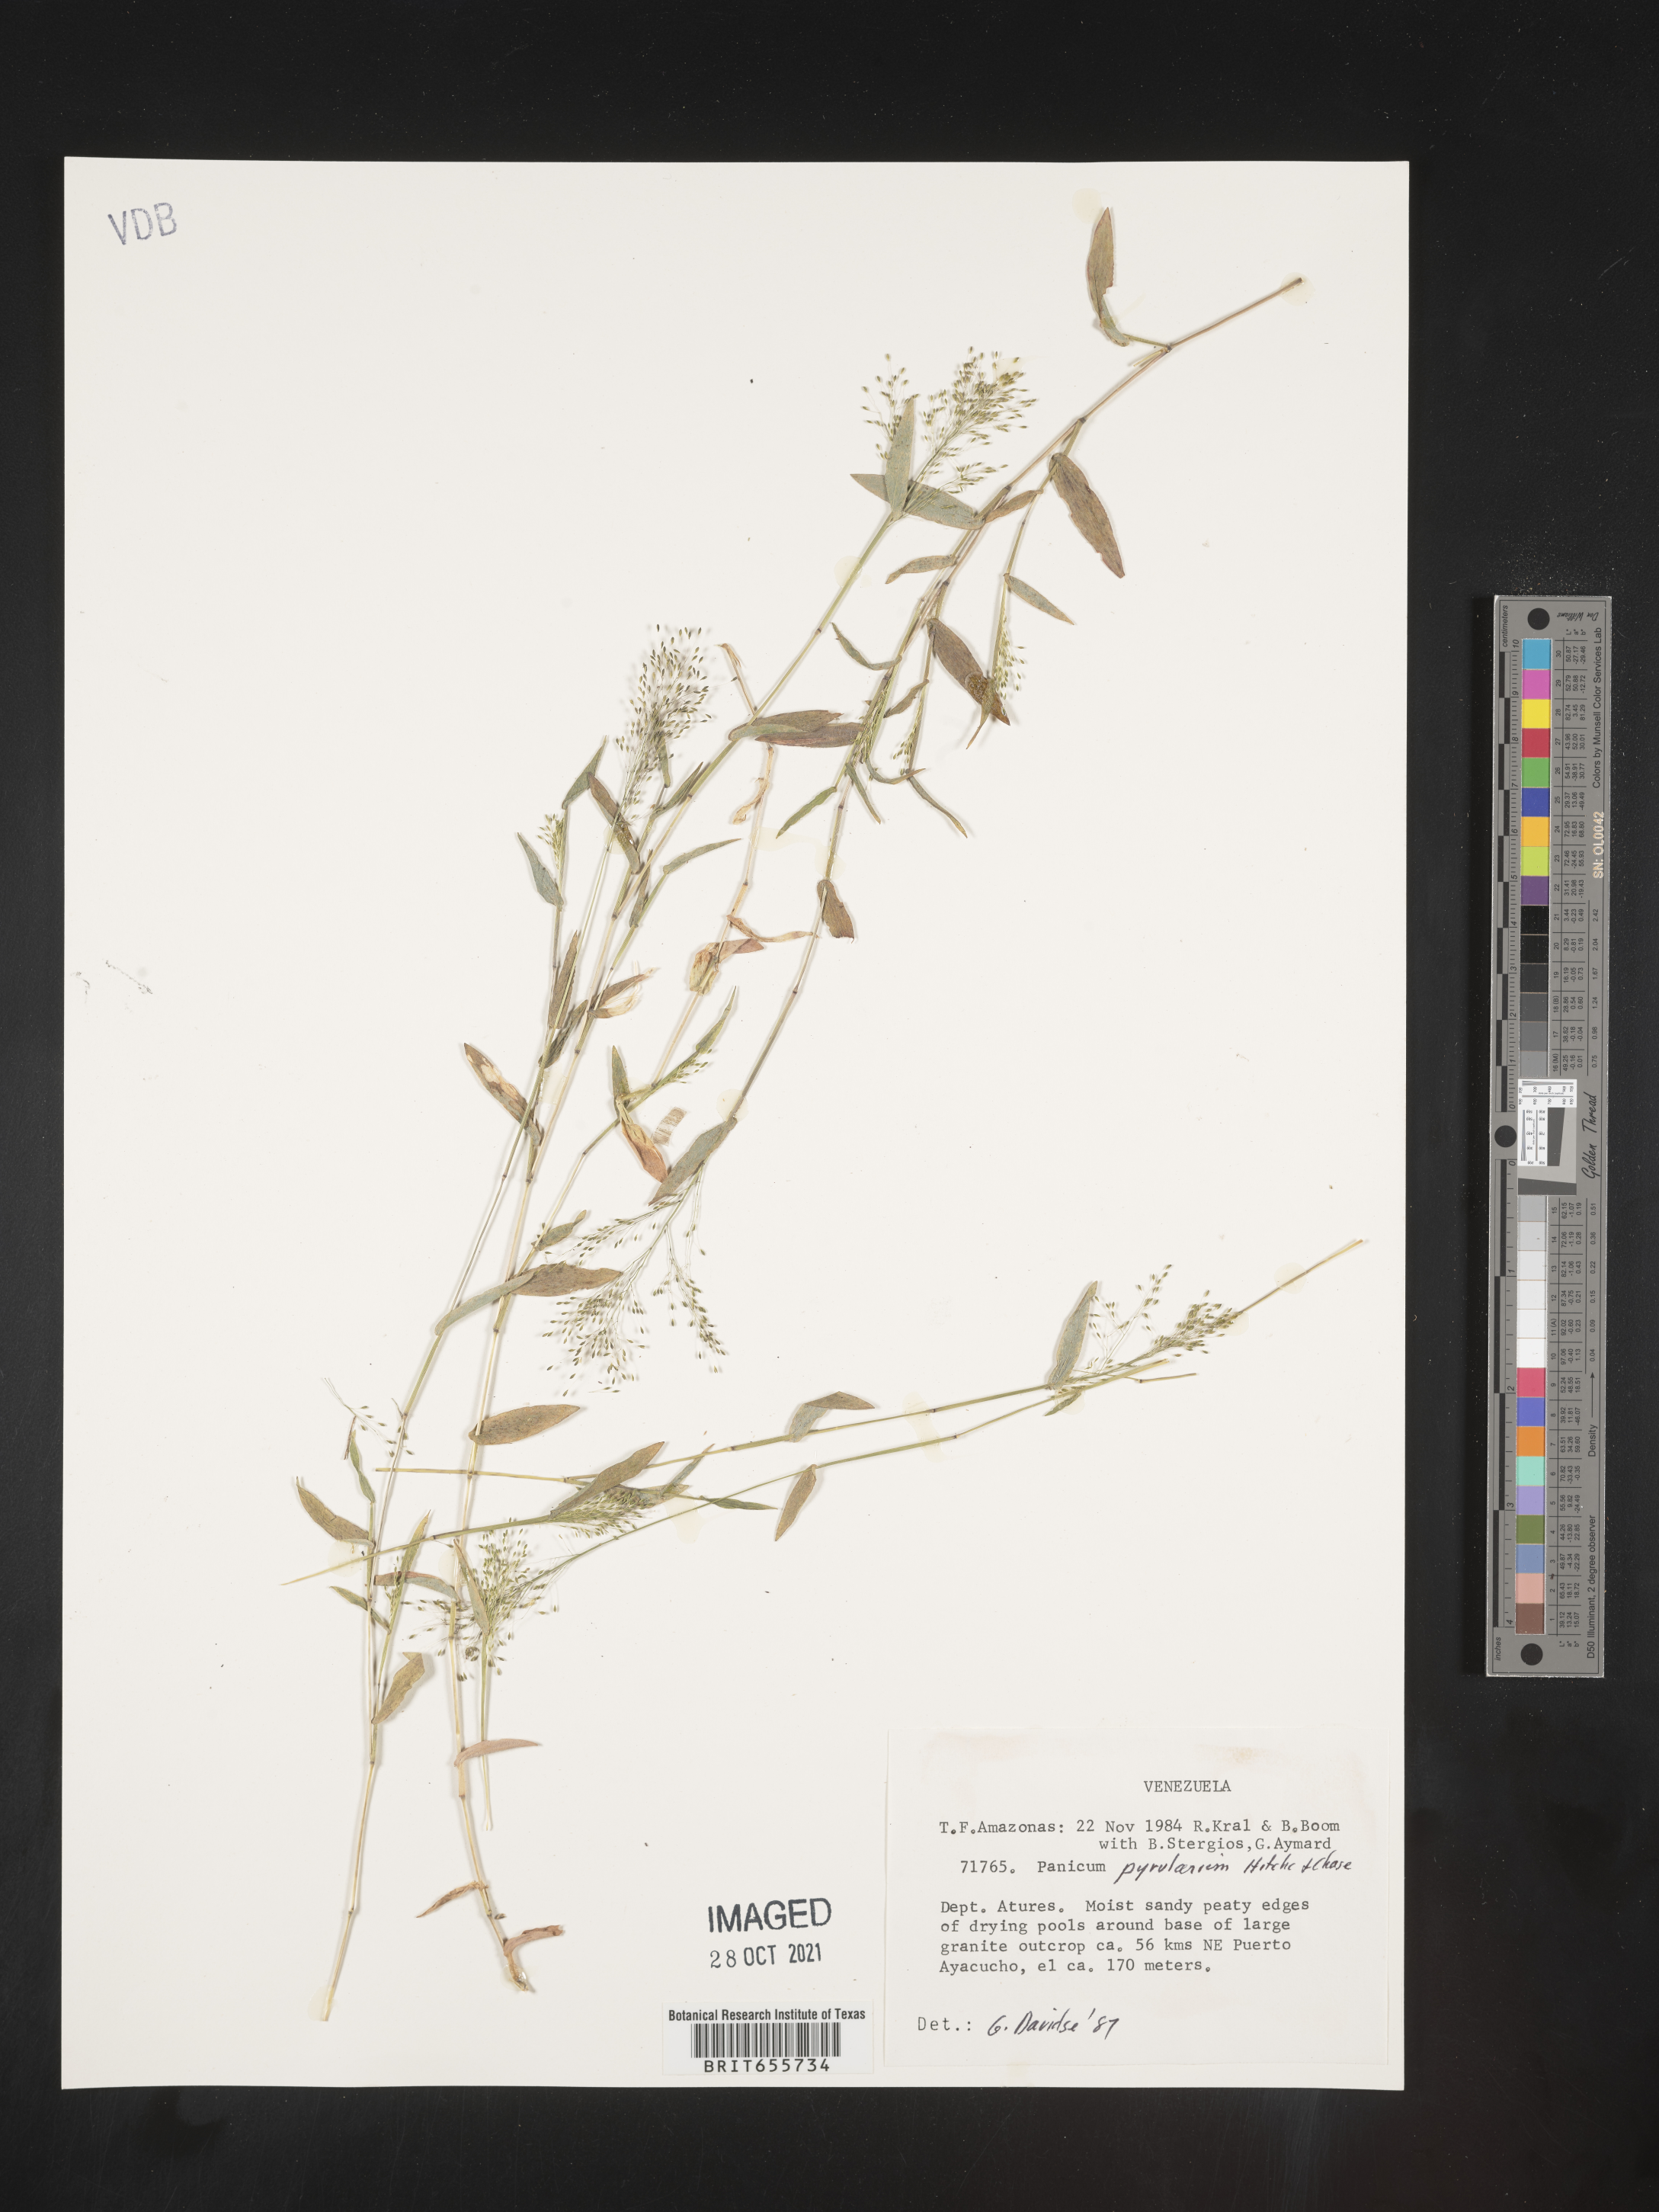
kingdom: Plantae
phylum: Tracheophyta
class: Liliopsida
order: Poales
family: Poaceae
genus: Panicum
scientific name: Panicum
